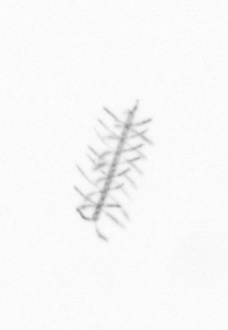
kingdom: Chromista
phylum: Ochrophyta
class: Bacillariophyceae
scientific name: Bacillariophyceae
